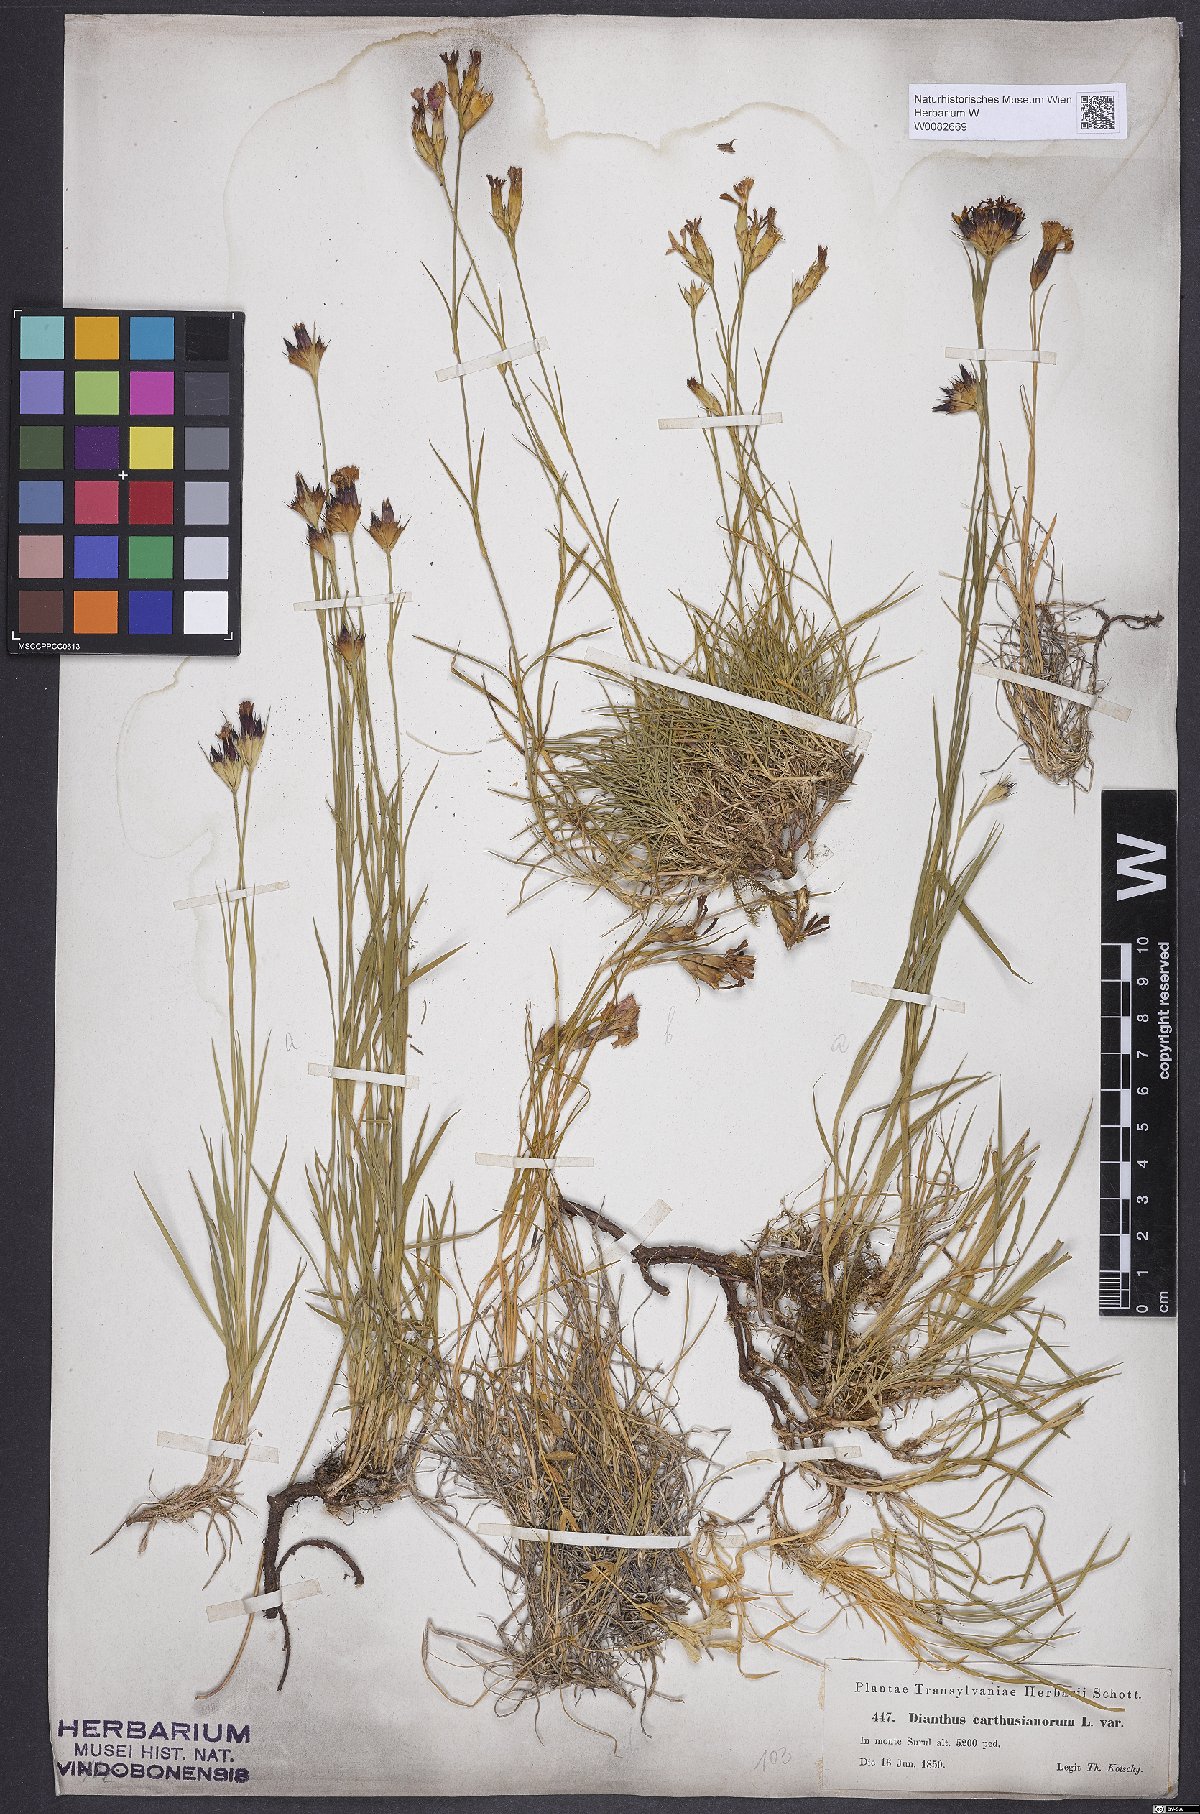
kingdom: Plantae
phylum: Tracheophyta
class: Magnoliopsida
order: Caryophyllales
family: Caryophyllaceae
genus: Dianthus
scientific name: Dianthus carthusianorum
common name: Carthusian pink
